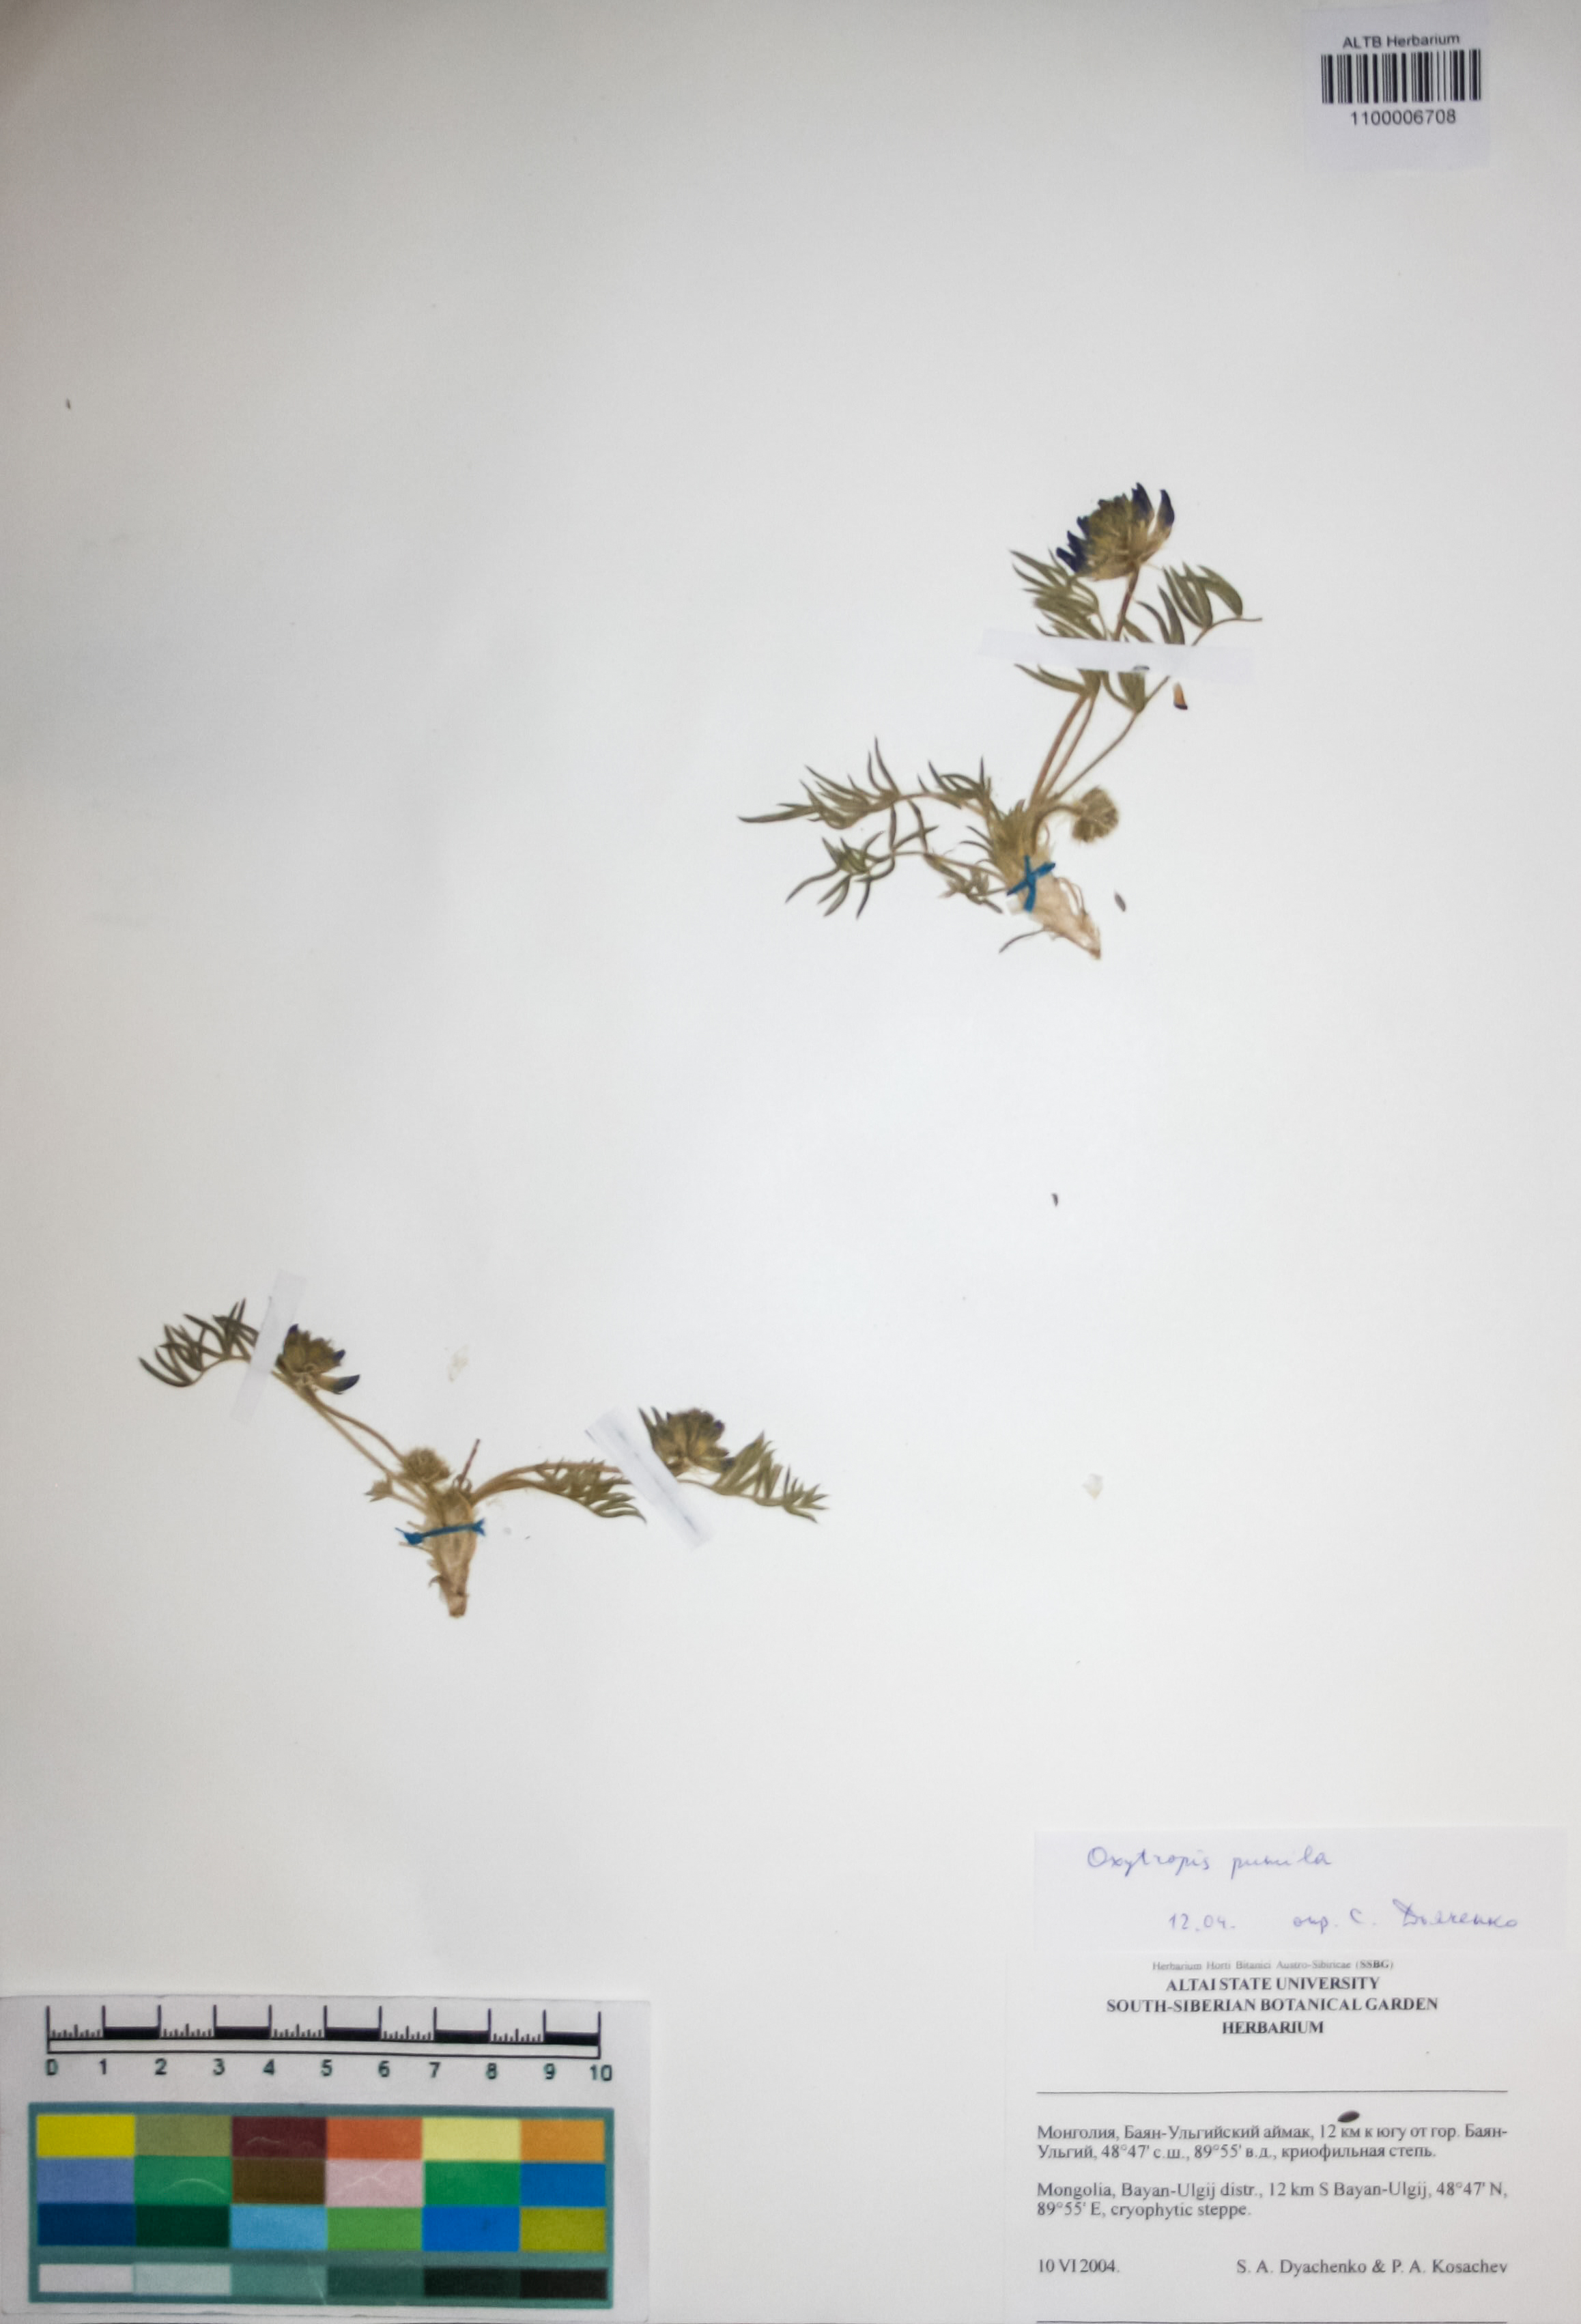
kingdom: Plantae
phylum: Tracheophyta
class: Magnoliopsida
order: Fabales
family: Fabaceae
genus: Oxytropis
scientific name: Oxytropis pumila
